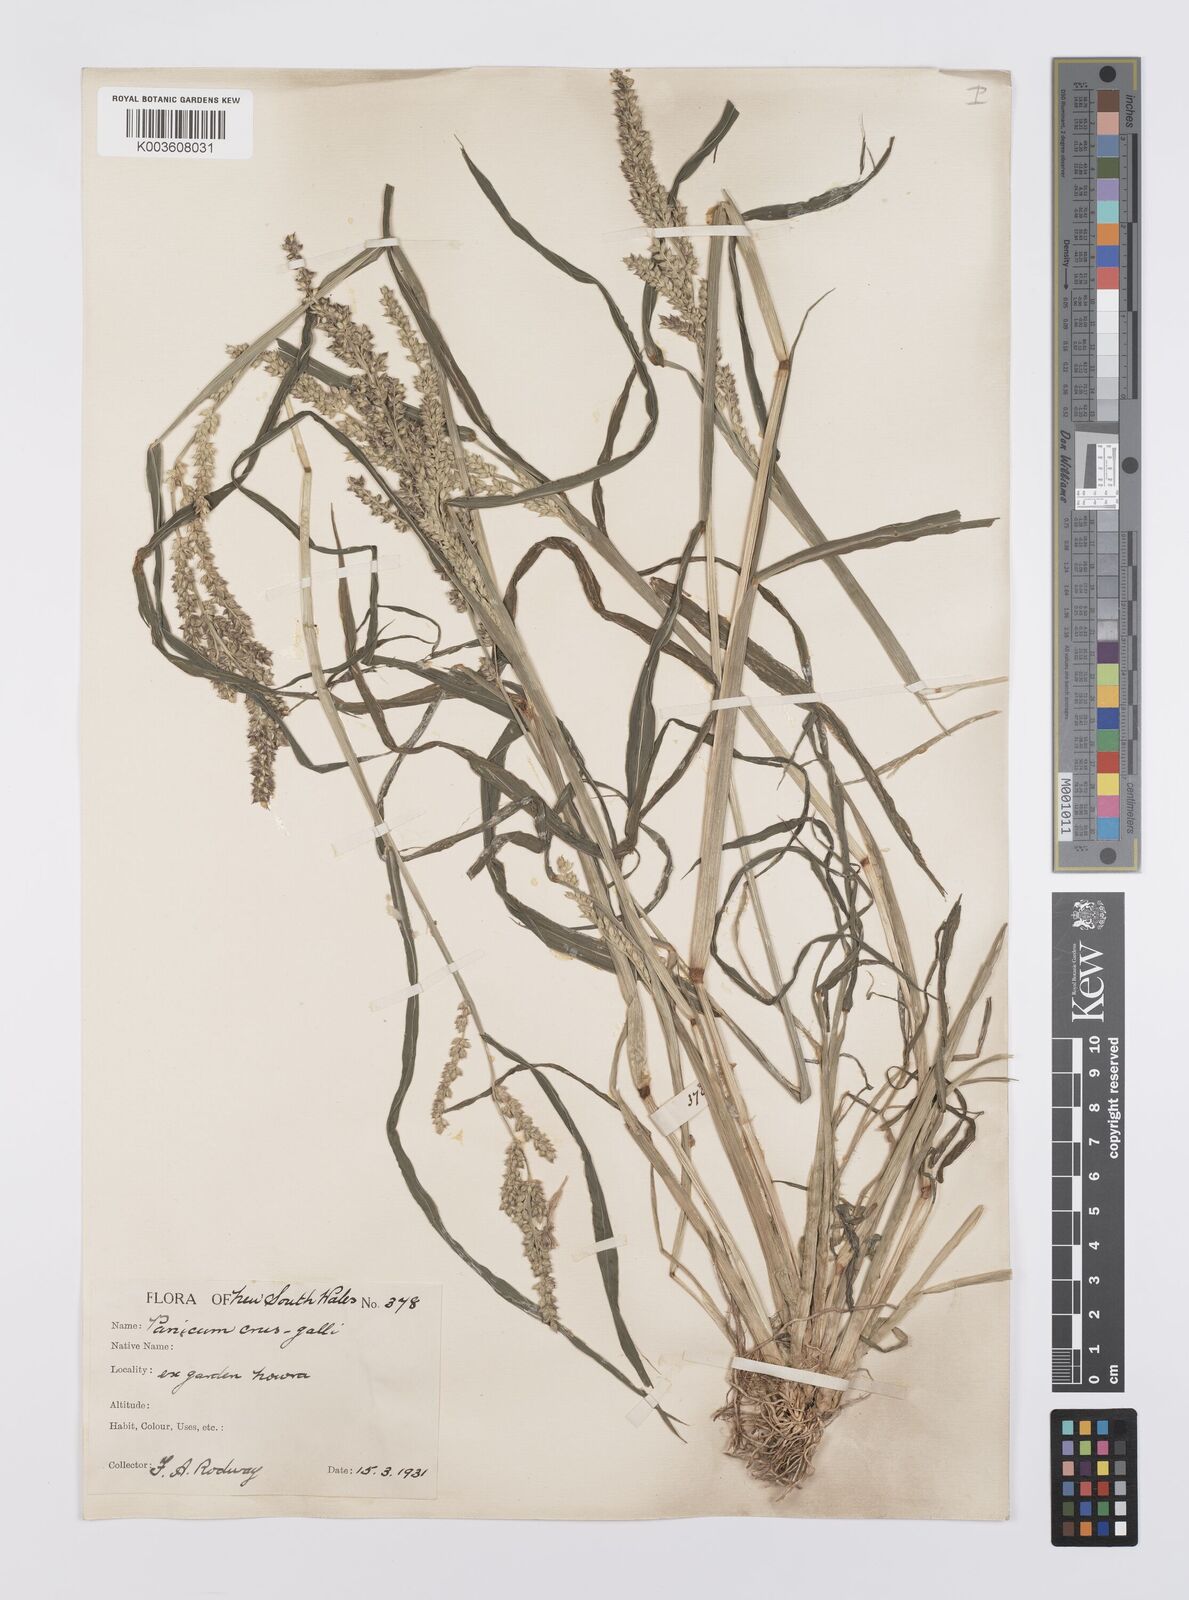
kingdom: Plantae
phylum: Tracheophyta
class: Liliopsida
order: Poales
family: Poaceae
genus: Echinochloa
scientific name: Echinochloa crus-galli
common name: Cockspur
